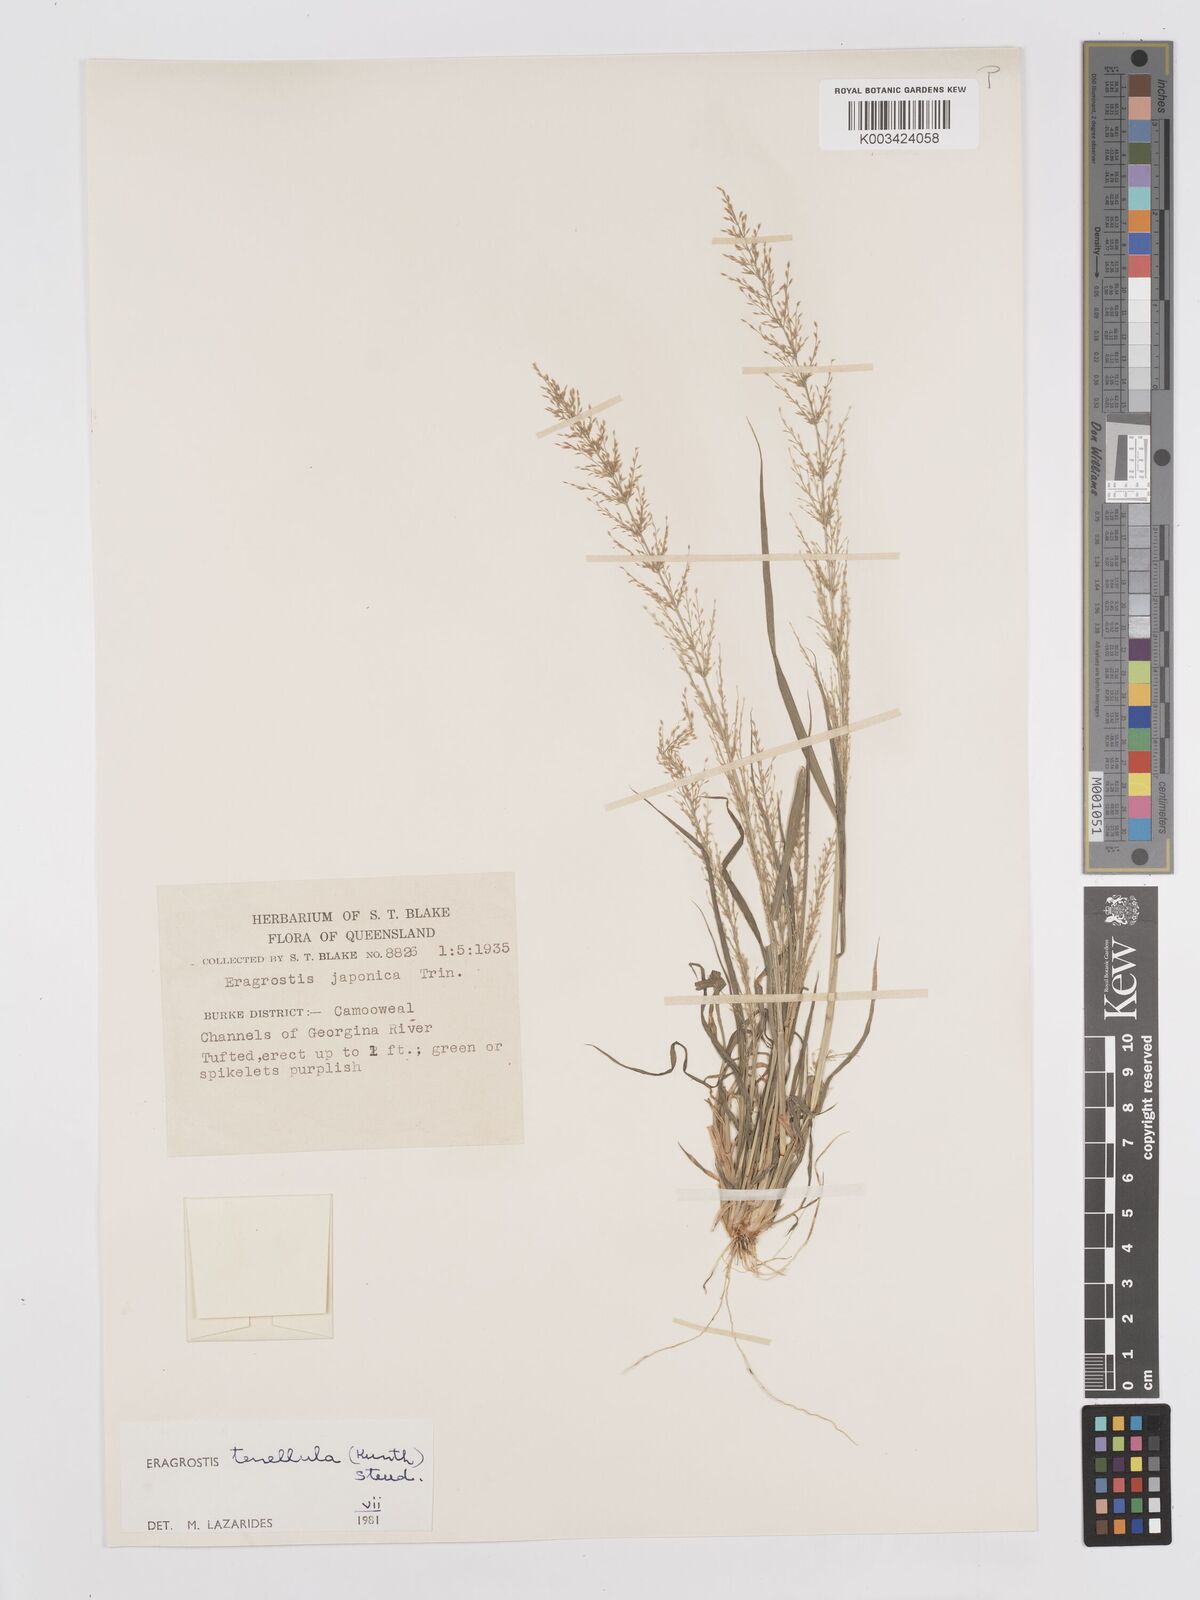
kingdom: Plantae
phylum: Tracheophyta
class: Liliopsida
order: Poales
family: Poaceae
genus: Eragrostis
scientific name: Eragrostis tenellula
